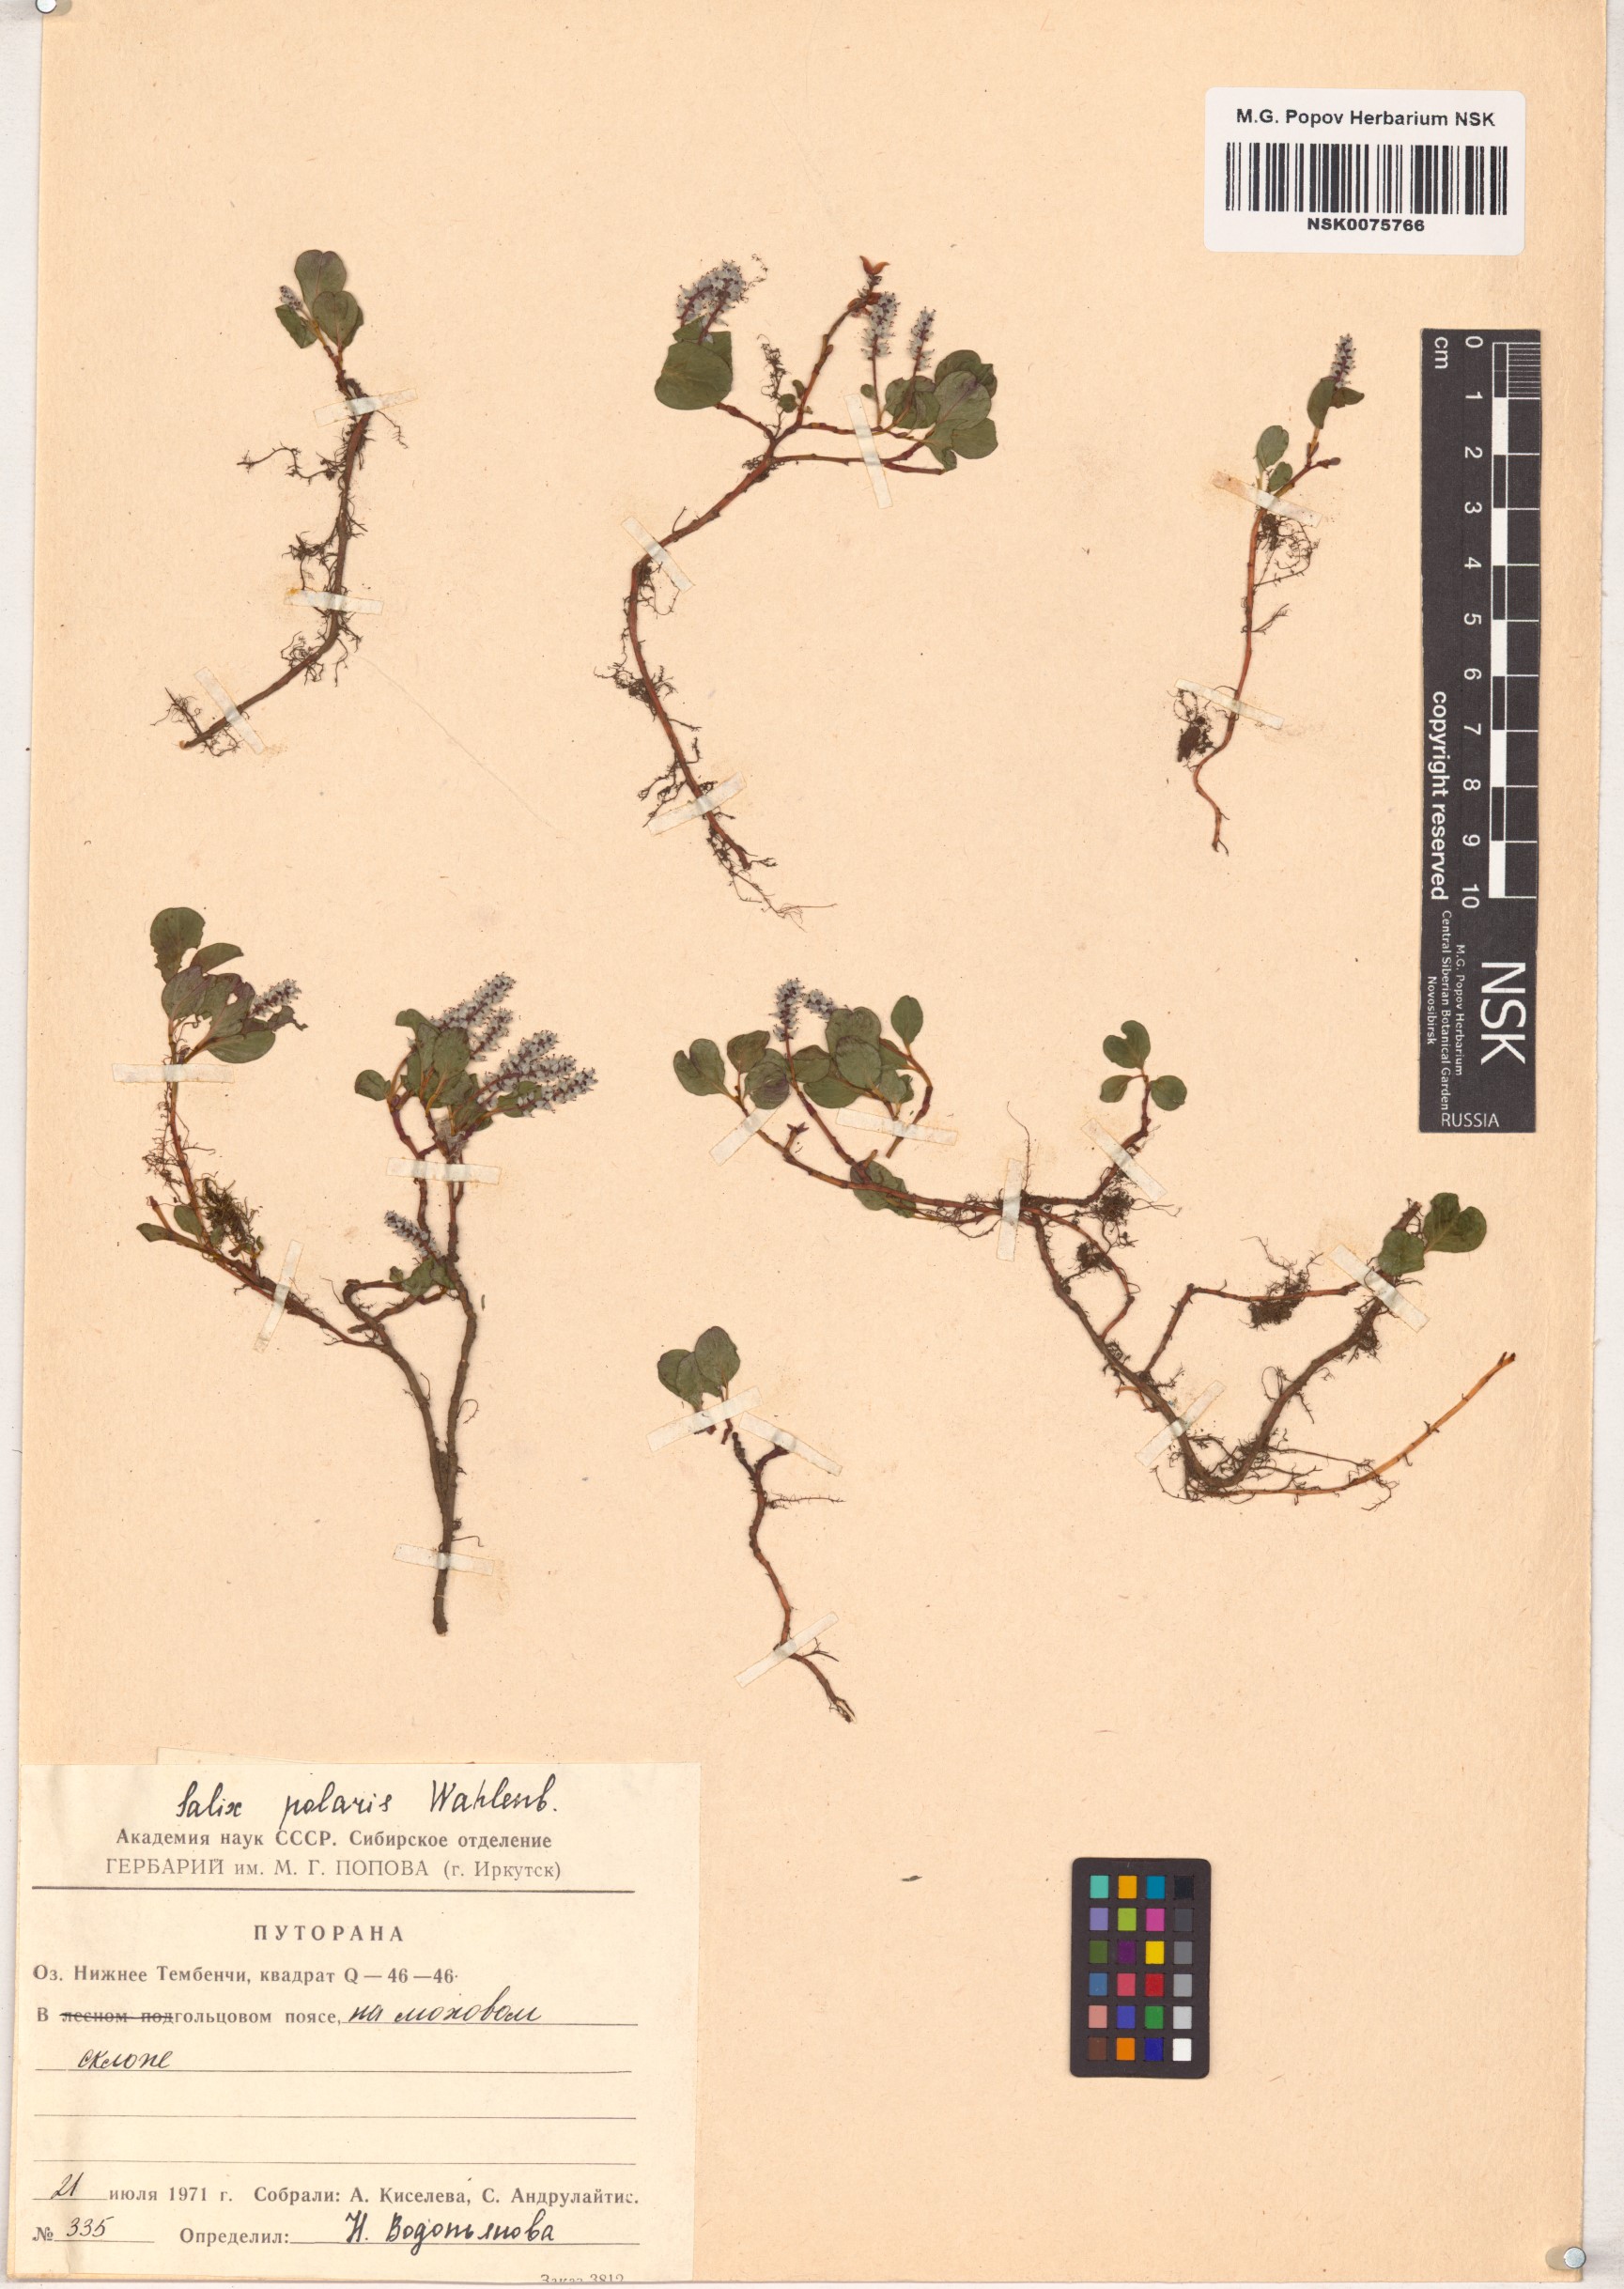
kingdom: Plantae
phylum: Tracheophyta
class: Magnoliopsida
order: Malpighiales
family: Salicaceae
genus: Salix
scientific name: Salix polaris
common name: Polar willow
